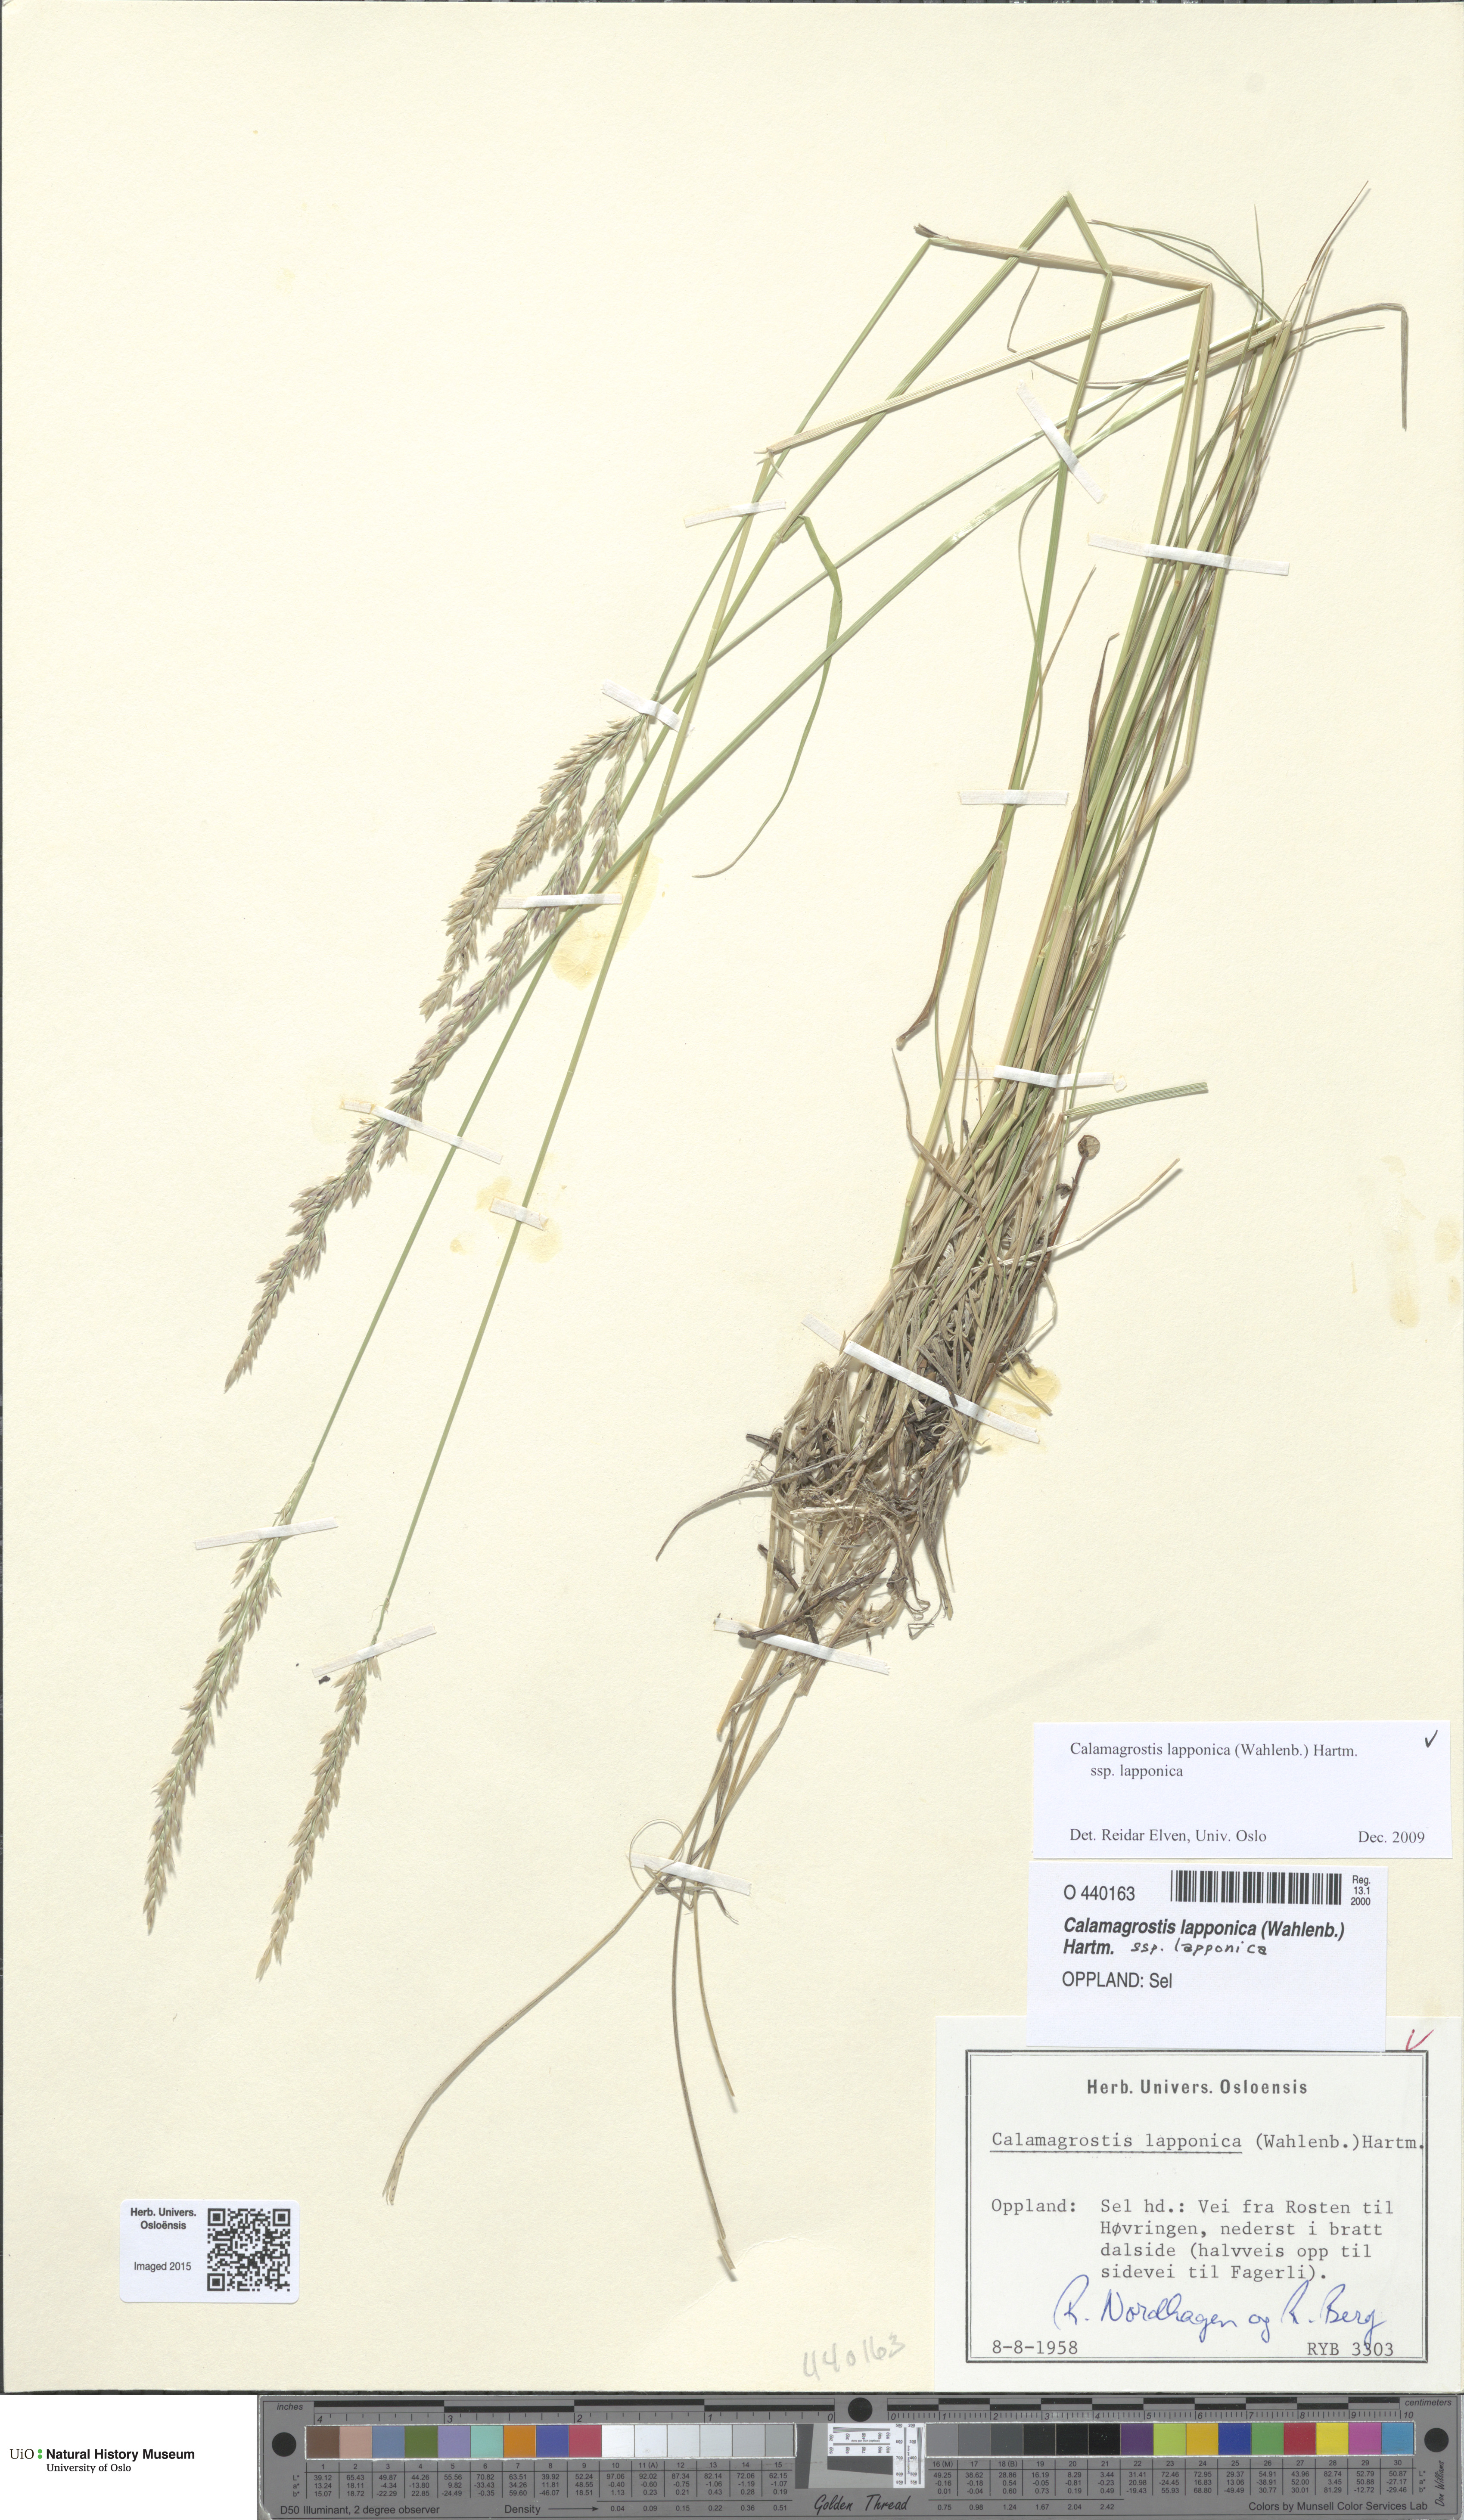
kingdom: Plantae
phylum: Tracheophyta
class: Liliopsida
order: Poales
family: Poaceae
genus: Calamagrostis
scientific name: Calamagrostis lapponica
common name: Lapland reedgrass
